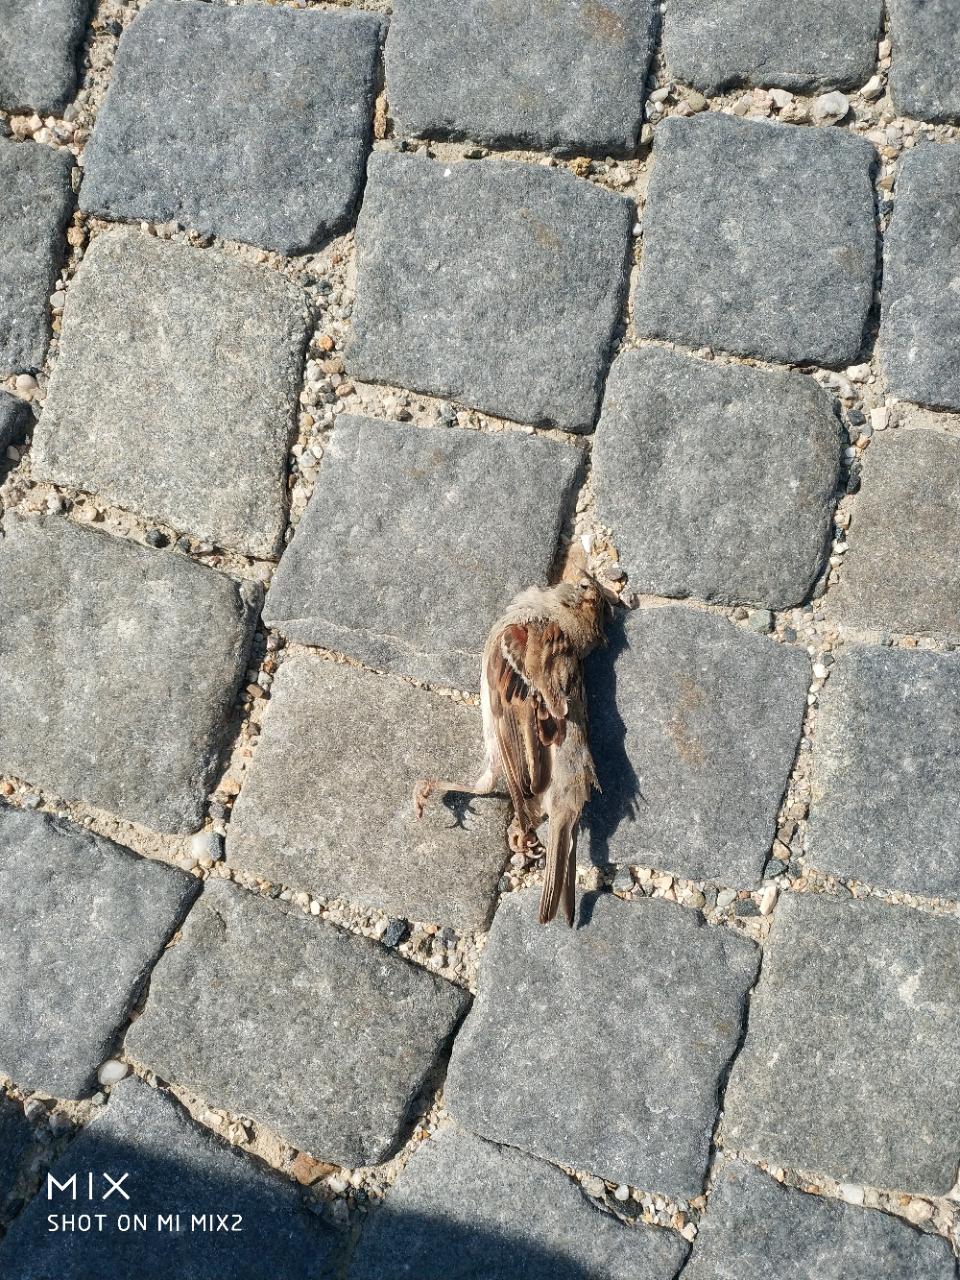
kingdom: Animalia
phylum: Chordata
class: Aves
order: Passeriformes
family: Passeridae
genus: Passer
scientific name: Passer domesticus
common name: House sparrow
